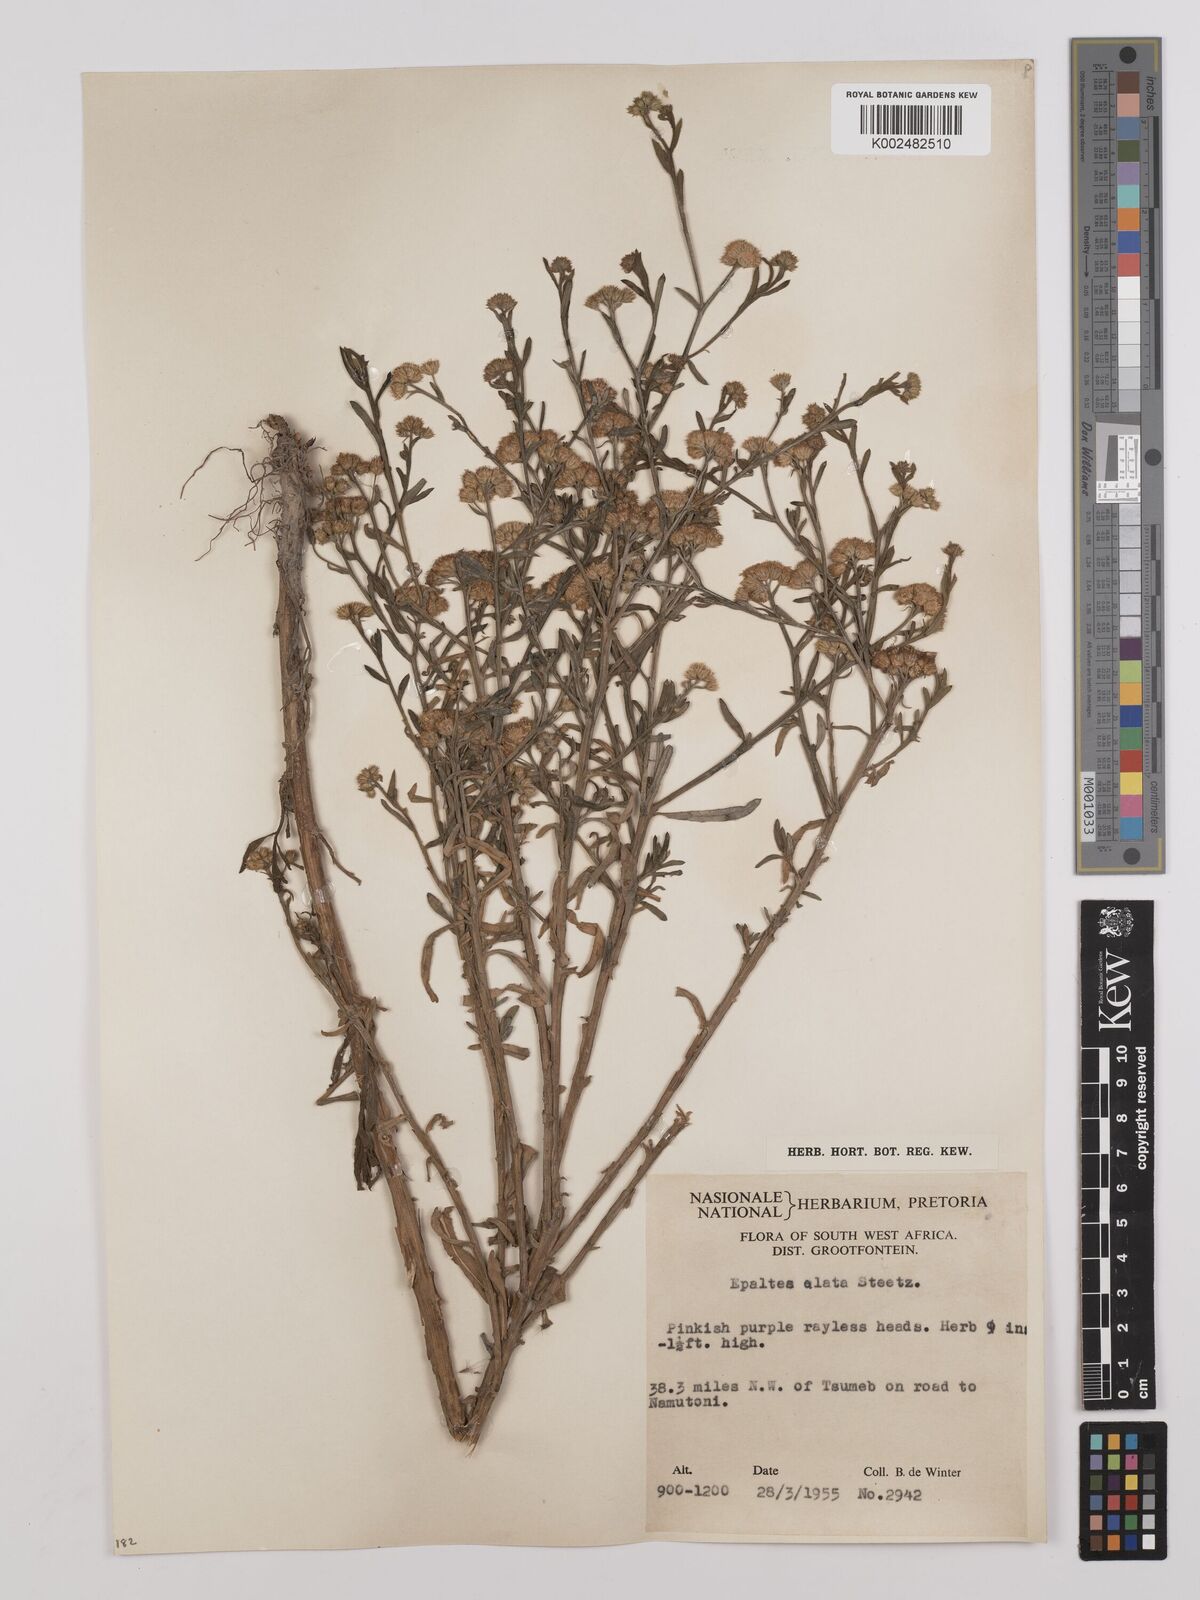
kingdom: Plantae
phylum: Tracheophyta
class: Magnoliopsida
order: Asterales
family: Asteraceae
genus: Litogyne
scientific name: Litogyne gariepina
